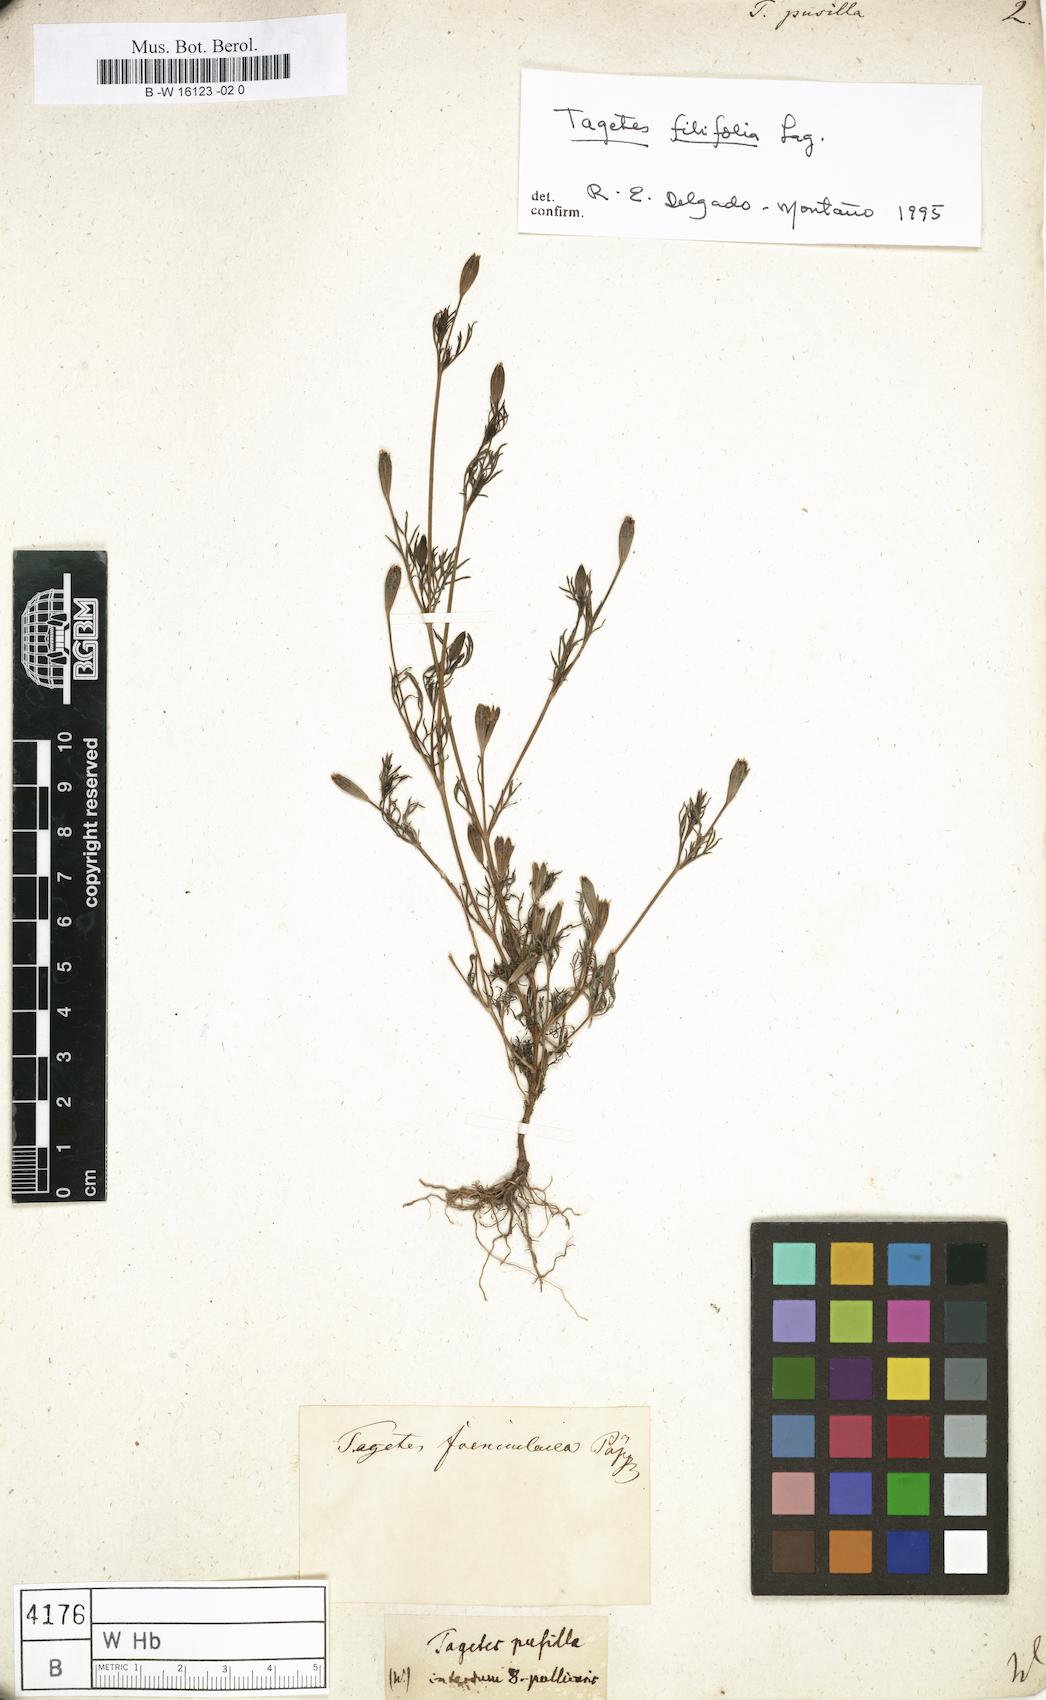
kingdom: Plantae
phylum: Tracheophyta
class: Magnoliopsida
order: Asterales
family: Asteraceae
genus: Tagetes
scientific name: Tagetes filifolia
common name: Lesser marigold
